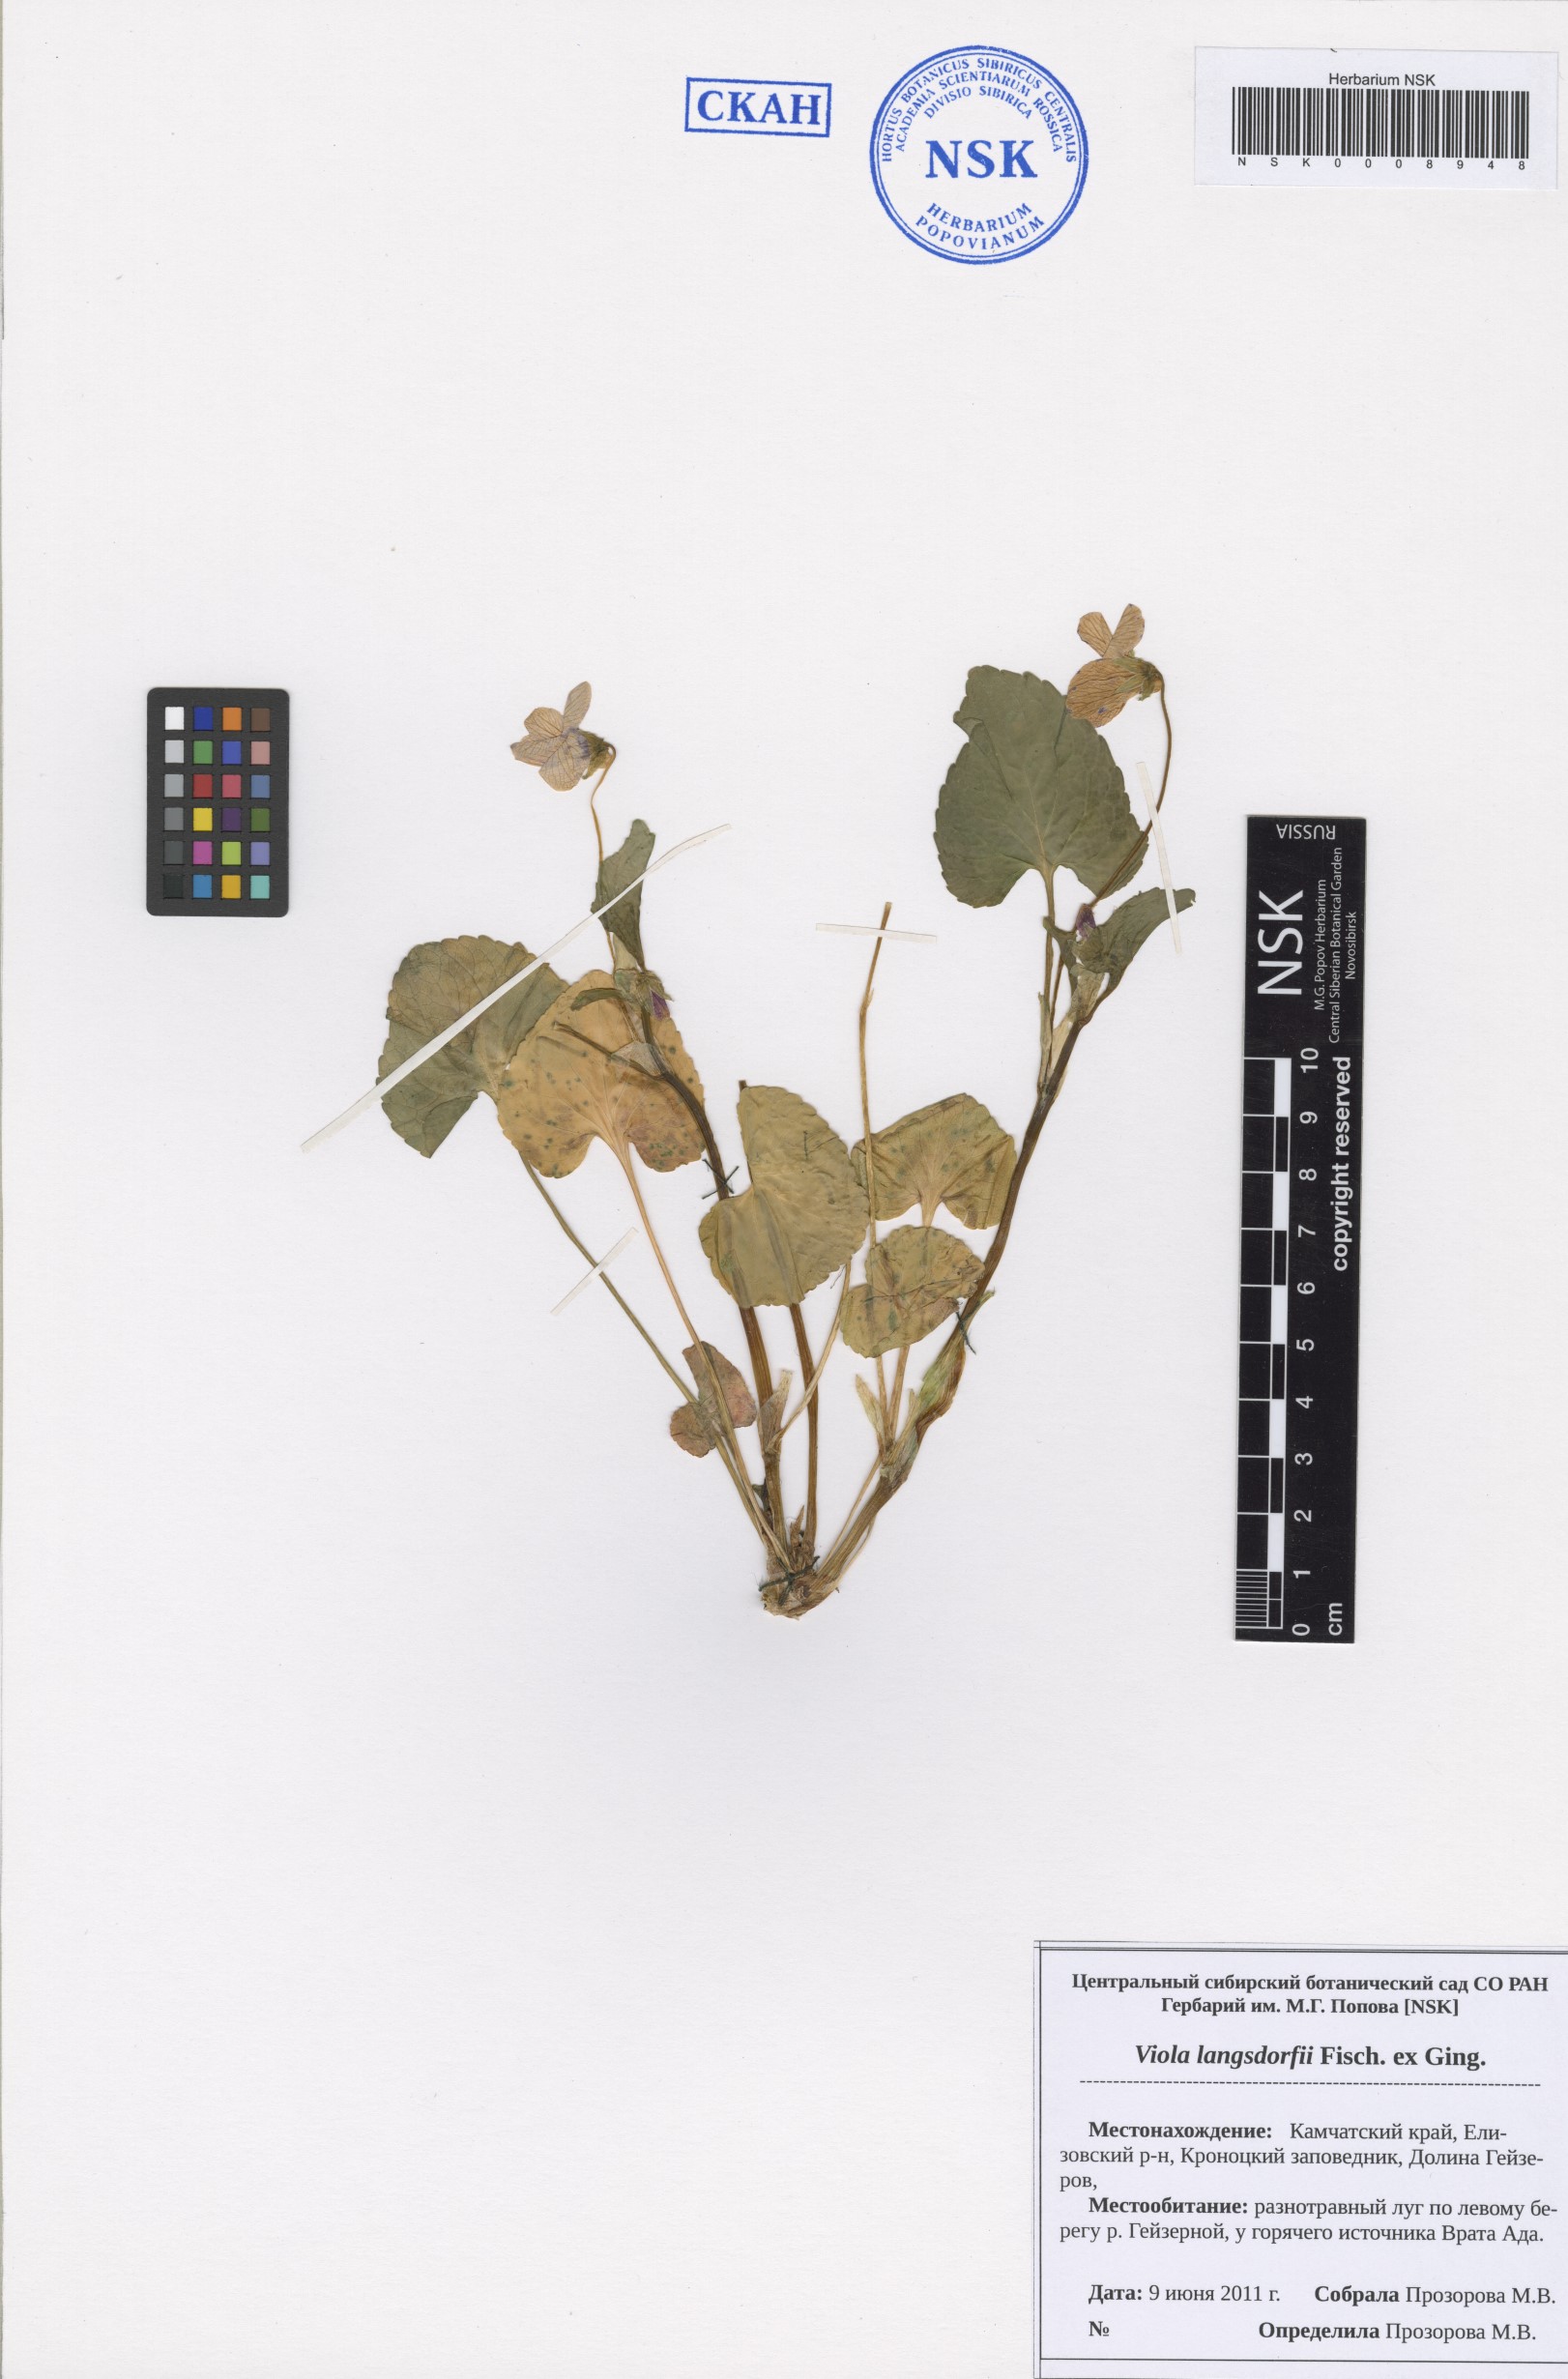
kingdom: Plantae
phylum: Tracheophyta
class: Magnoliopsida
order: Malpighiales
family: Violaceae
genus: Viola
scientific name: Viola langsdorfii
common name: Alaska violet
